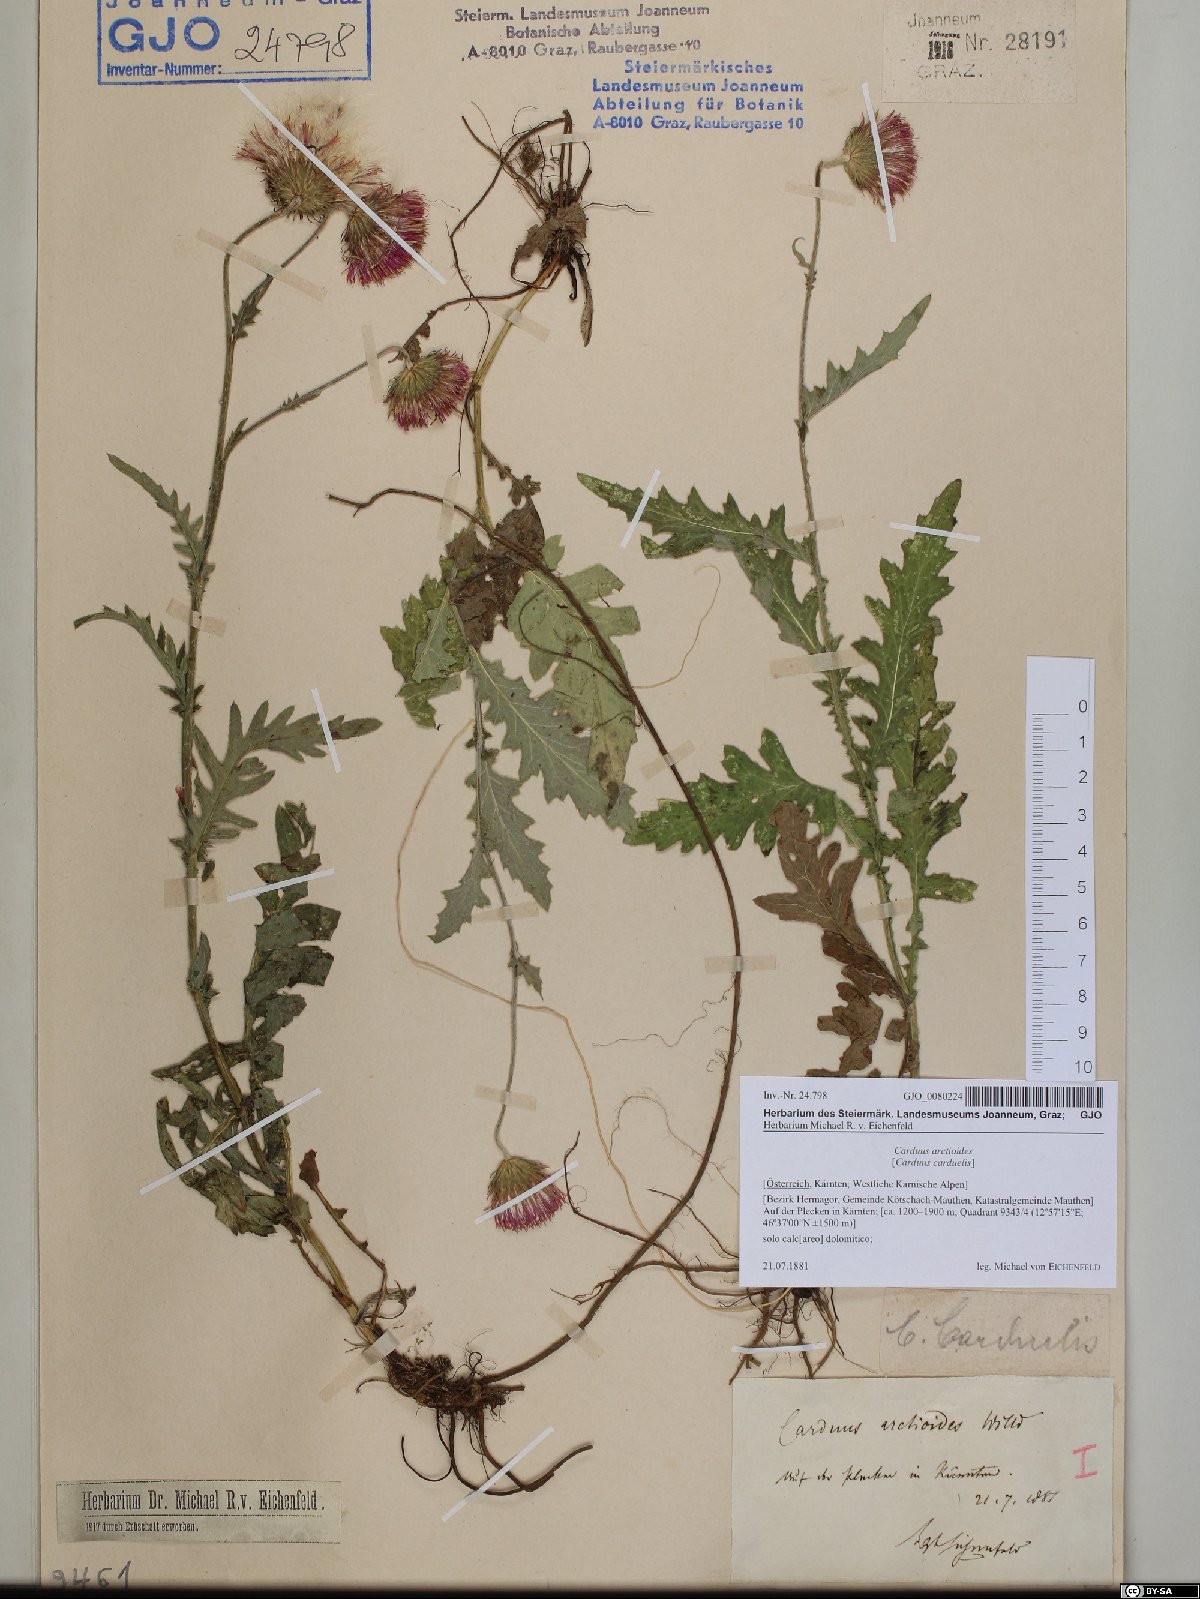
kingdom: Plantae
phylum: Tracheophyta
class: Magnoliopsida
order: Asterales
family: Asteraceae
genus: Carduus
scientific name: Carduus carduelis
